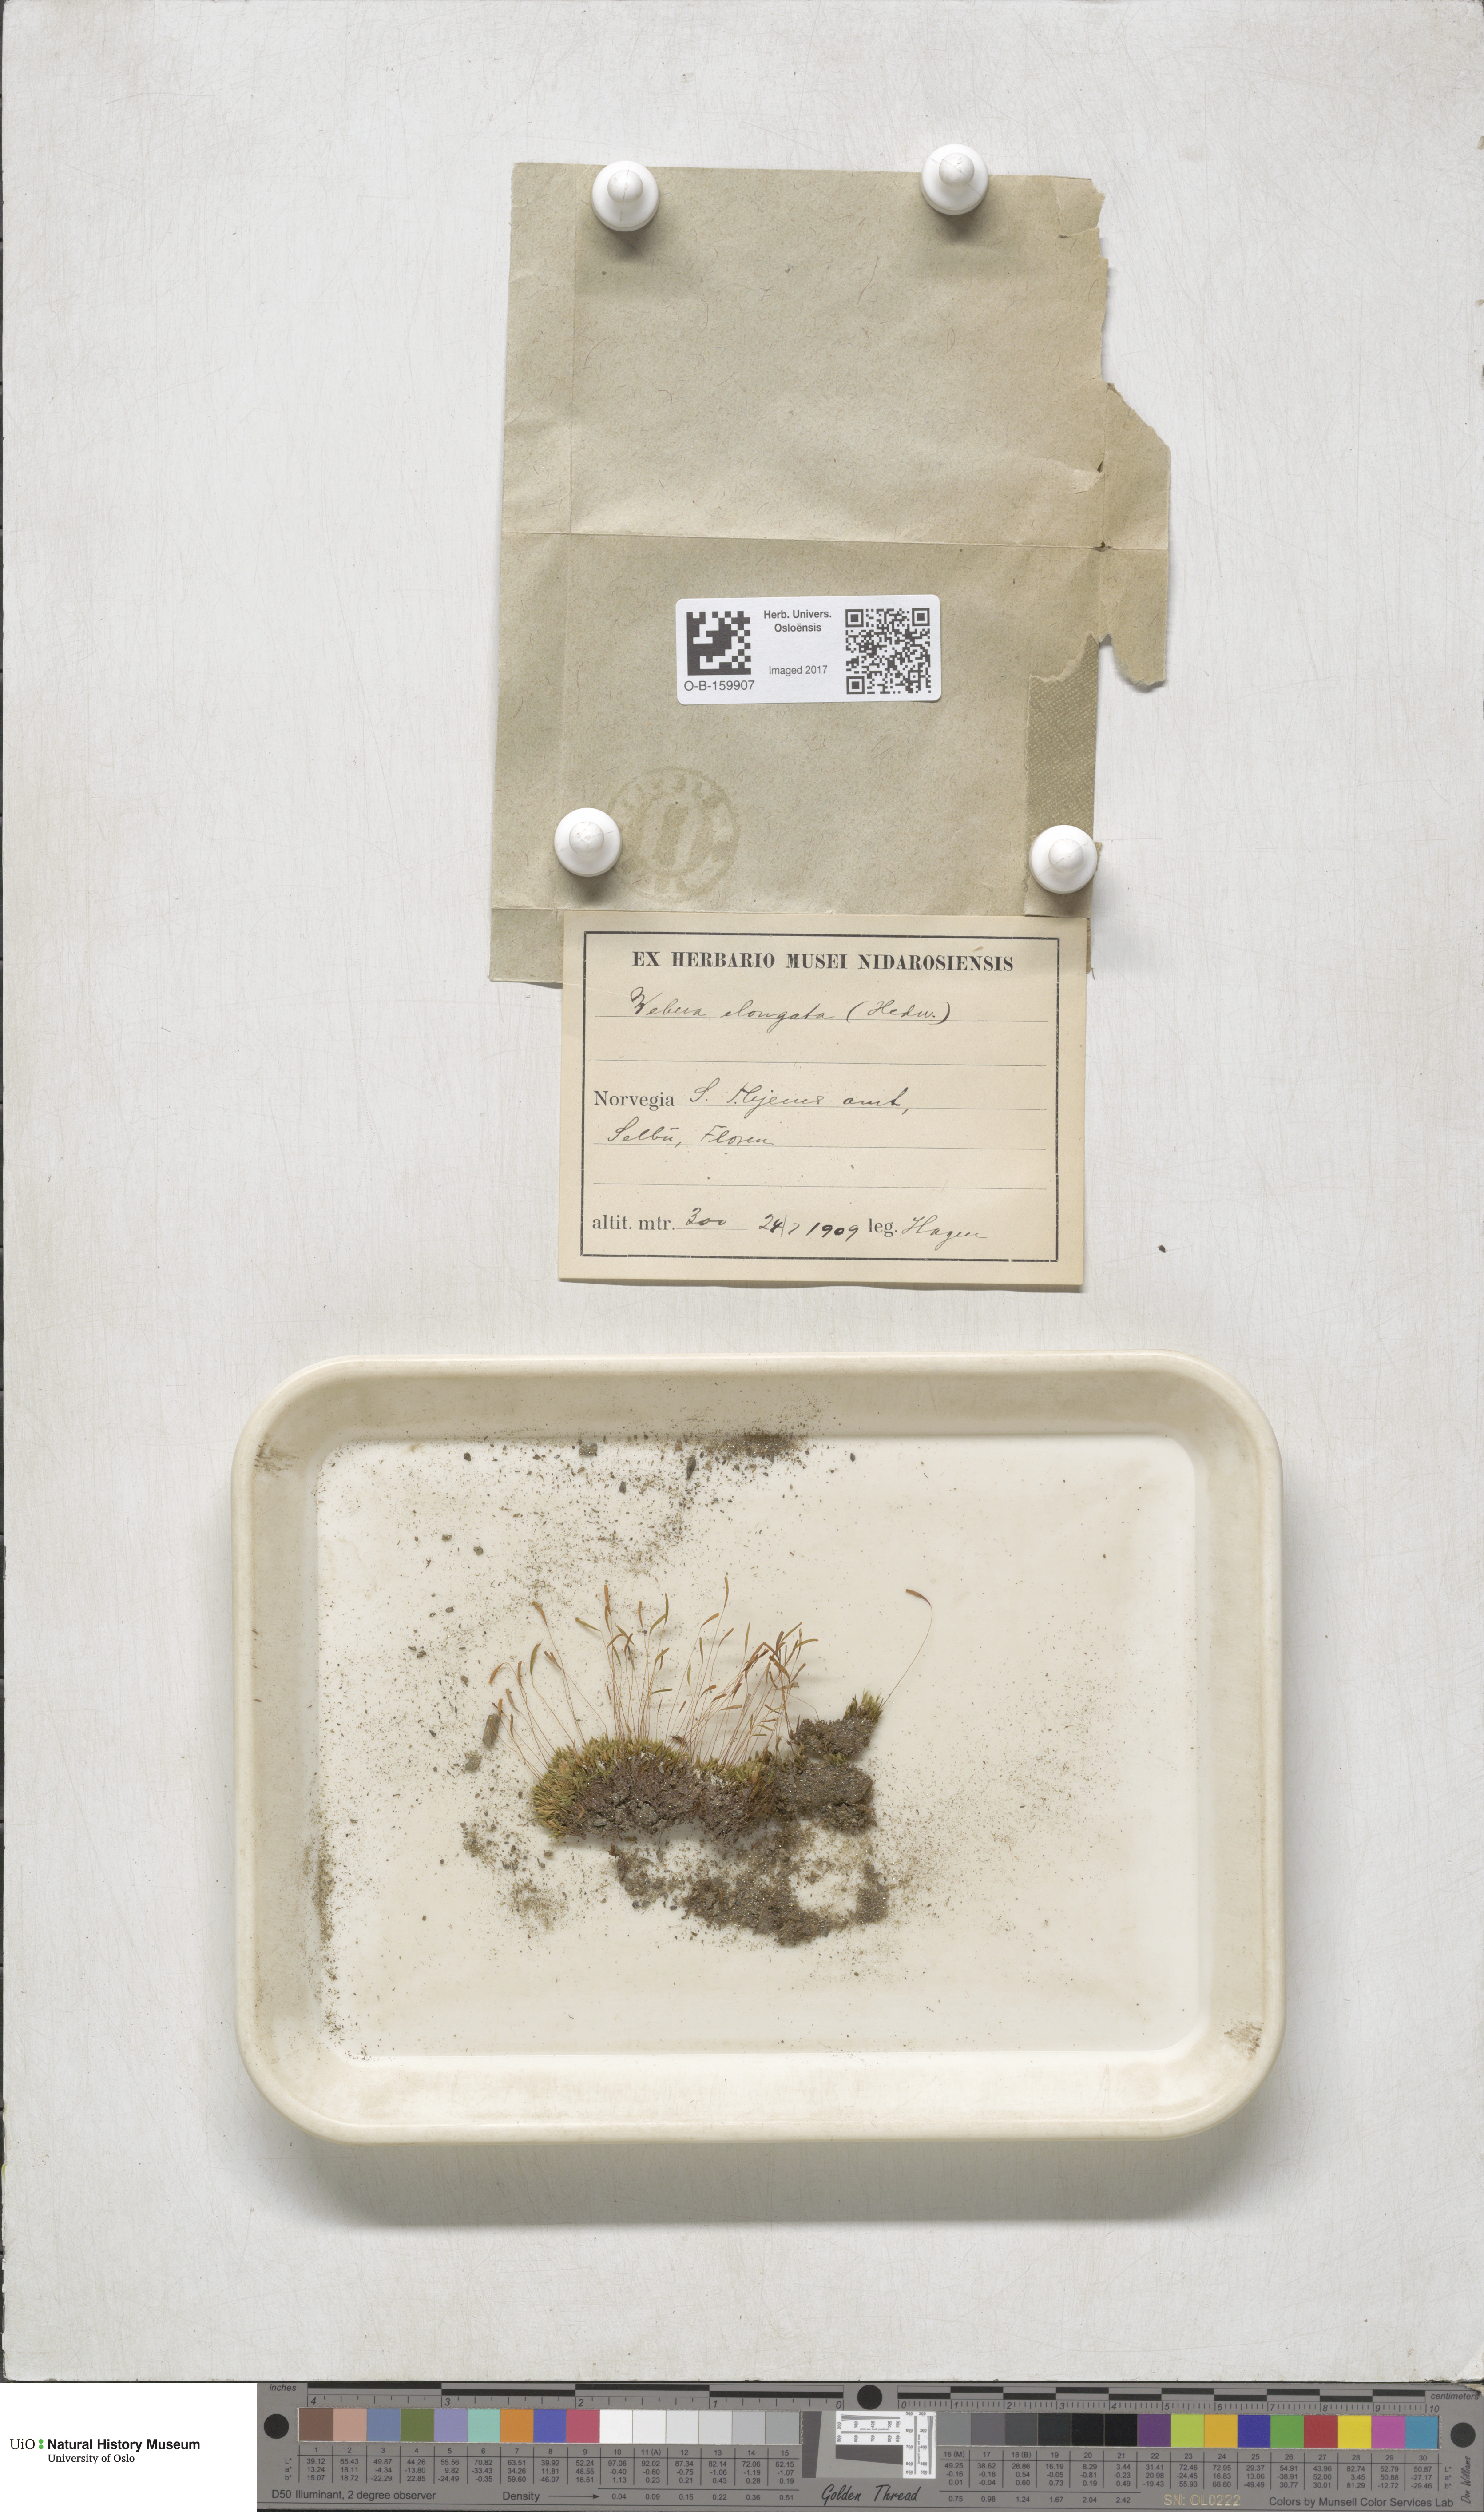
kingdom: Plantae
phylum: Bryophyta
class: Bryopsida
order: Bryales
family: Mniaceae
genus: Pohlia
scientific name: Pohlia elongata
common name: Long-fruited thread-moss
